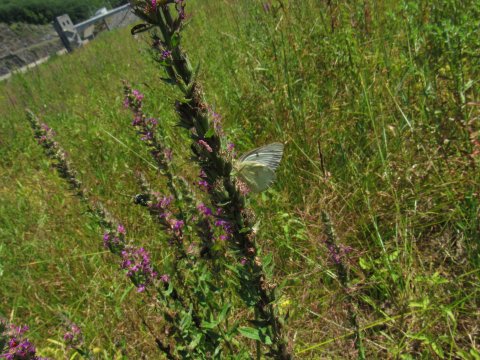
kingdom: Animalia
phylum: Arthropoda
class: Insecta
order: Lepidoptera
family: Pieridae
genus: Colias
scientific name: Colias philodice
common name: Clouded Sulphur
